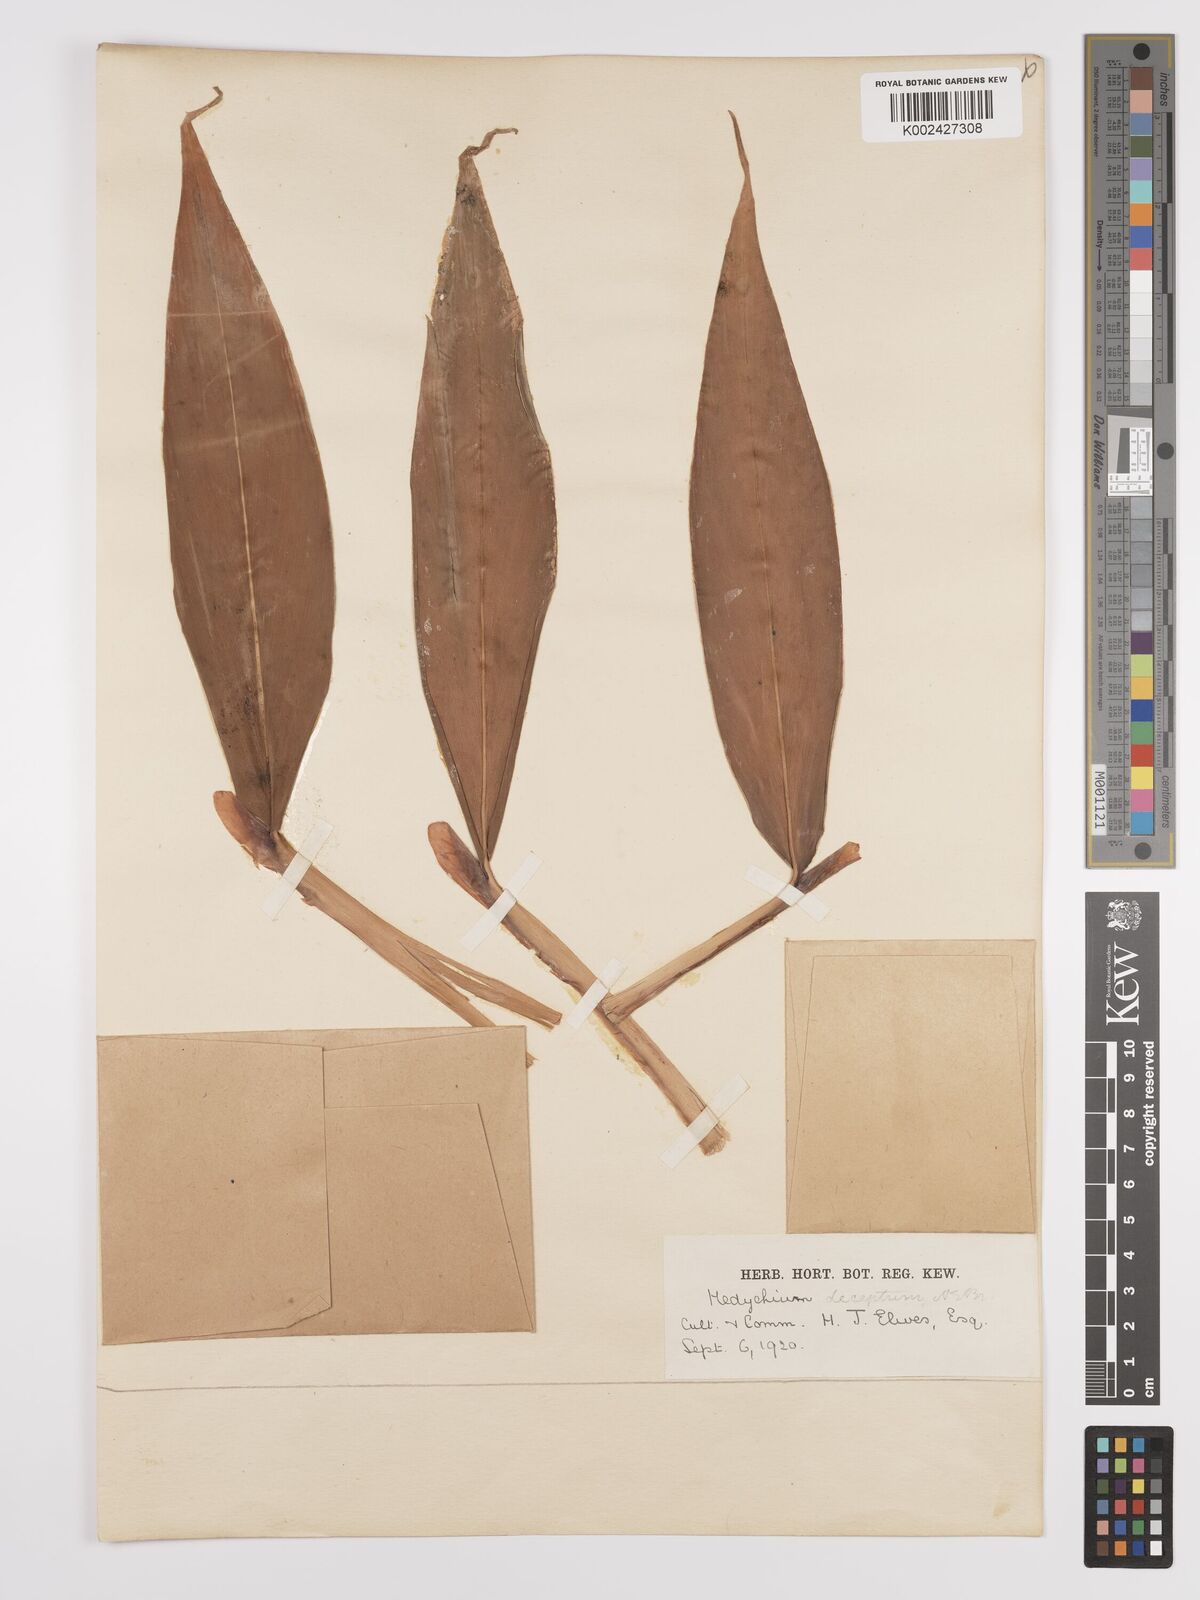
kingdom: Plantae
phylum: Tracheophyta
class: Liliopsida
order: Zingiberales
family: Zingiberaceae
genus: Hedychium
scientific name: Hedychium deceptum
